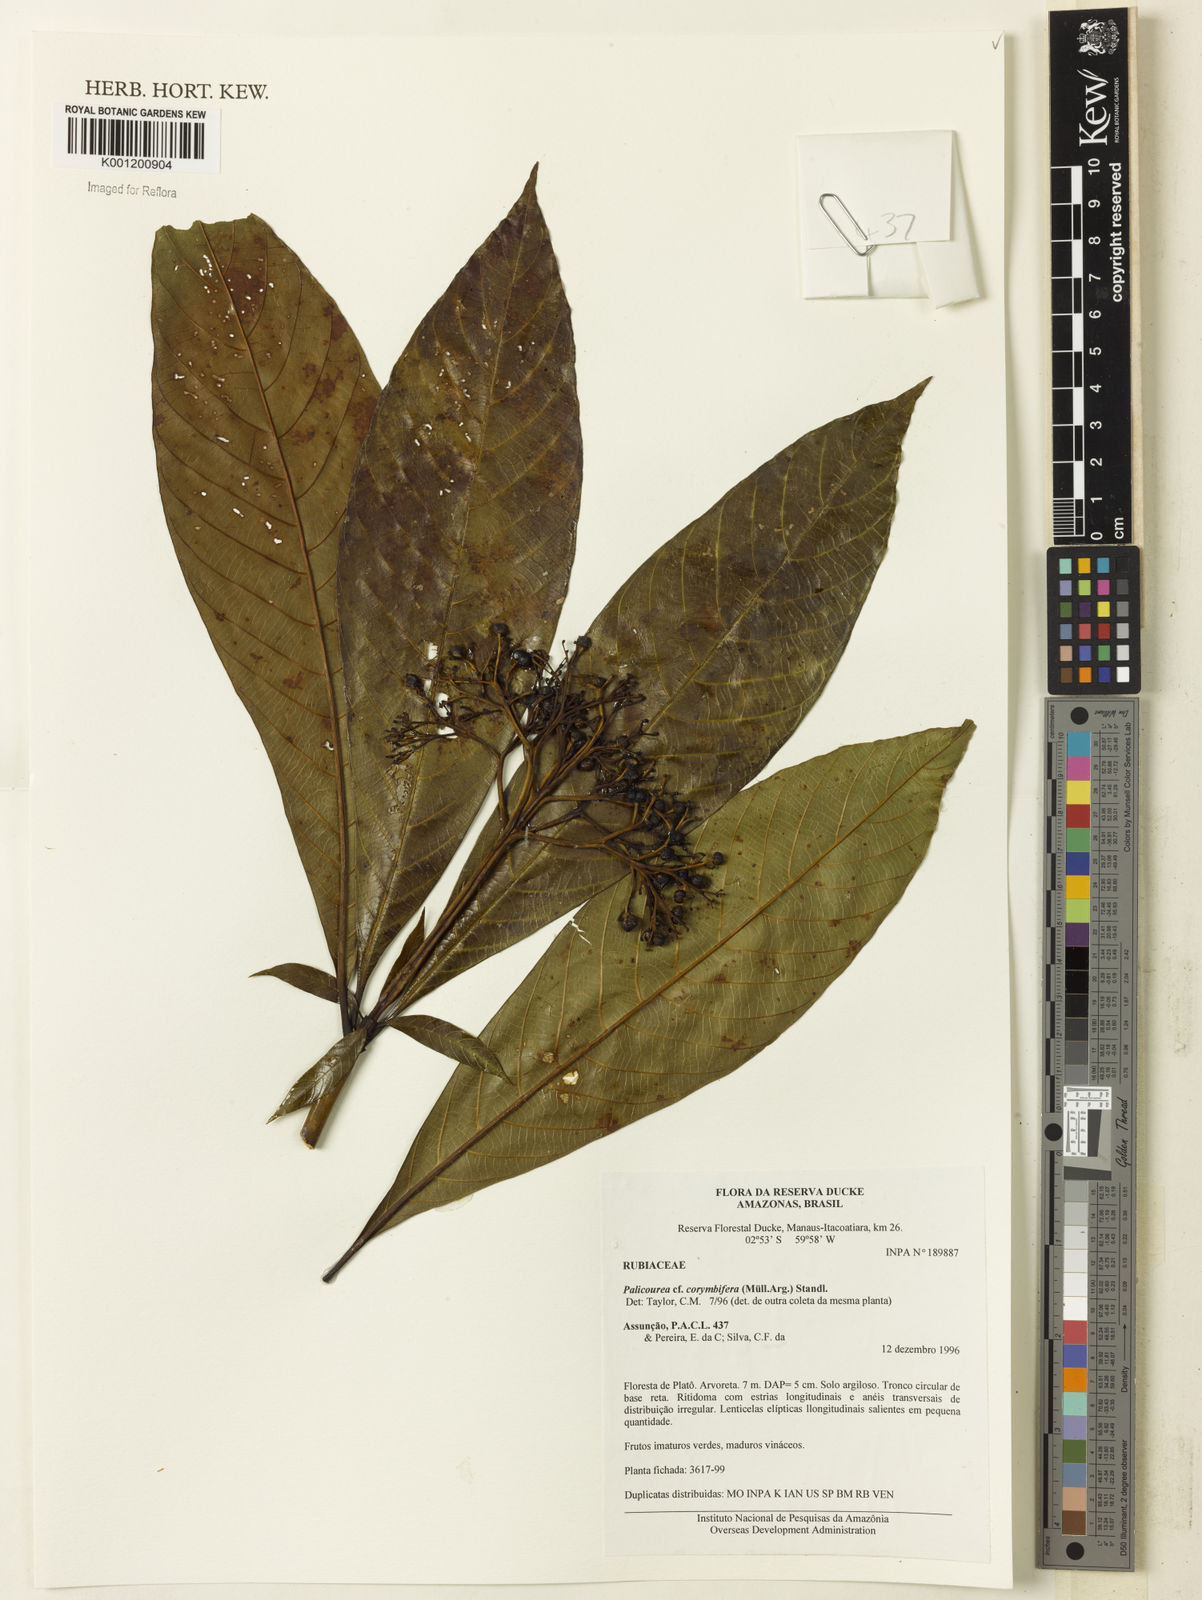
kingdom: Plantae
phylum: Tracheophyta
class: Magnoliopsida
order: Gentianales
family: Rubiaceae
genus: Palicourea
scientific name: Palicourea
